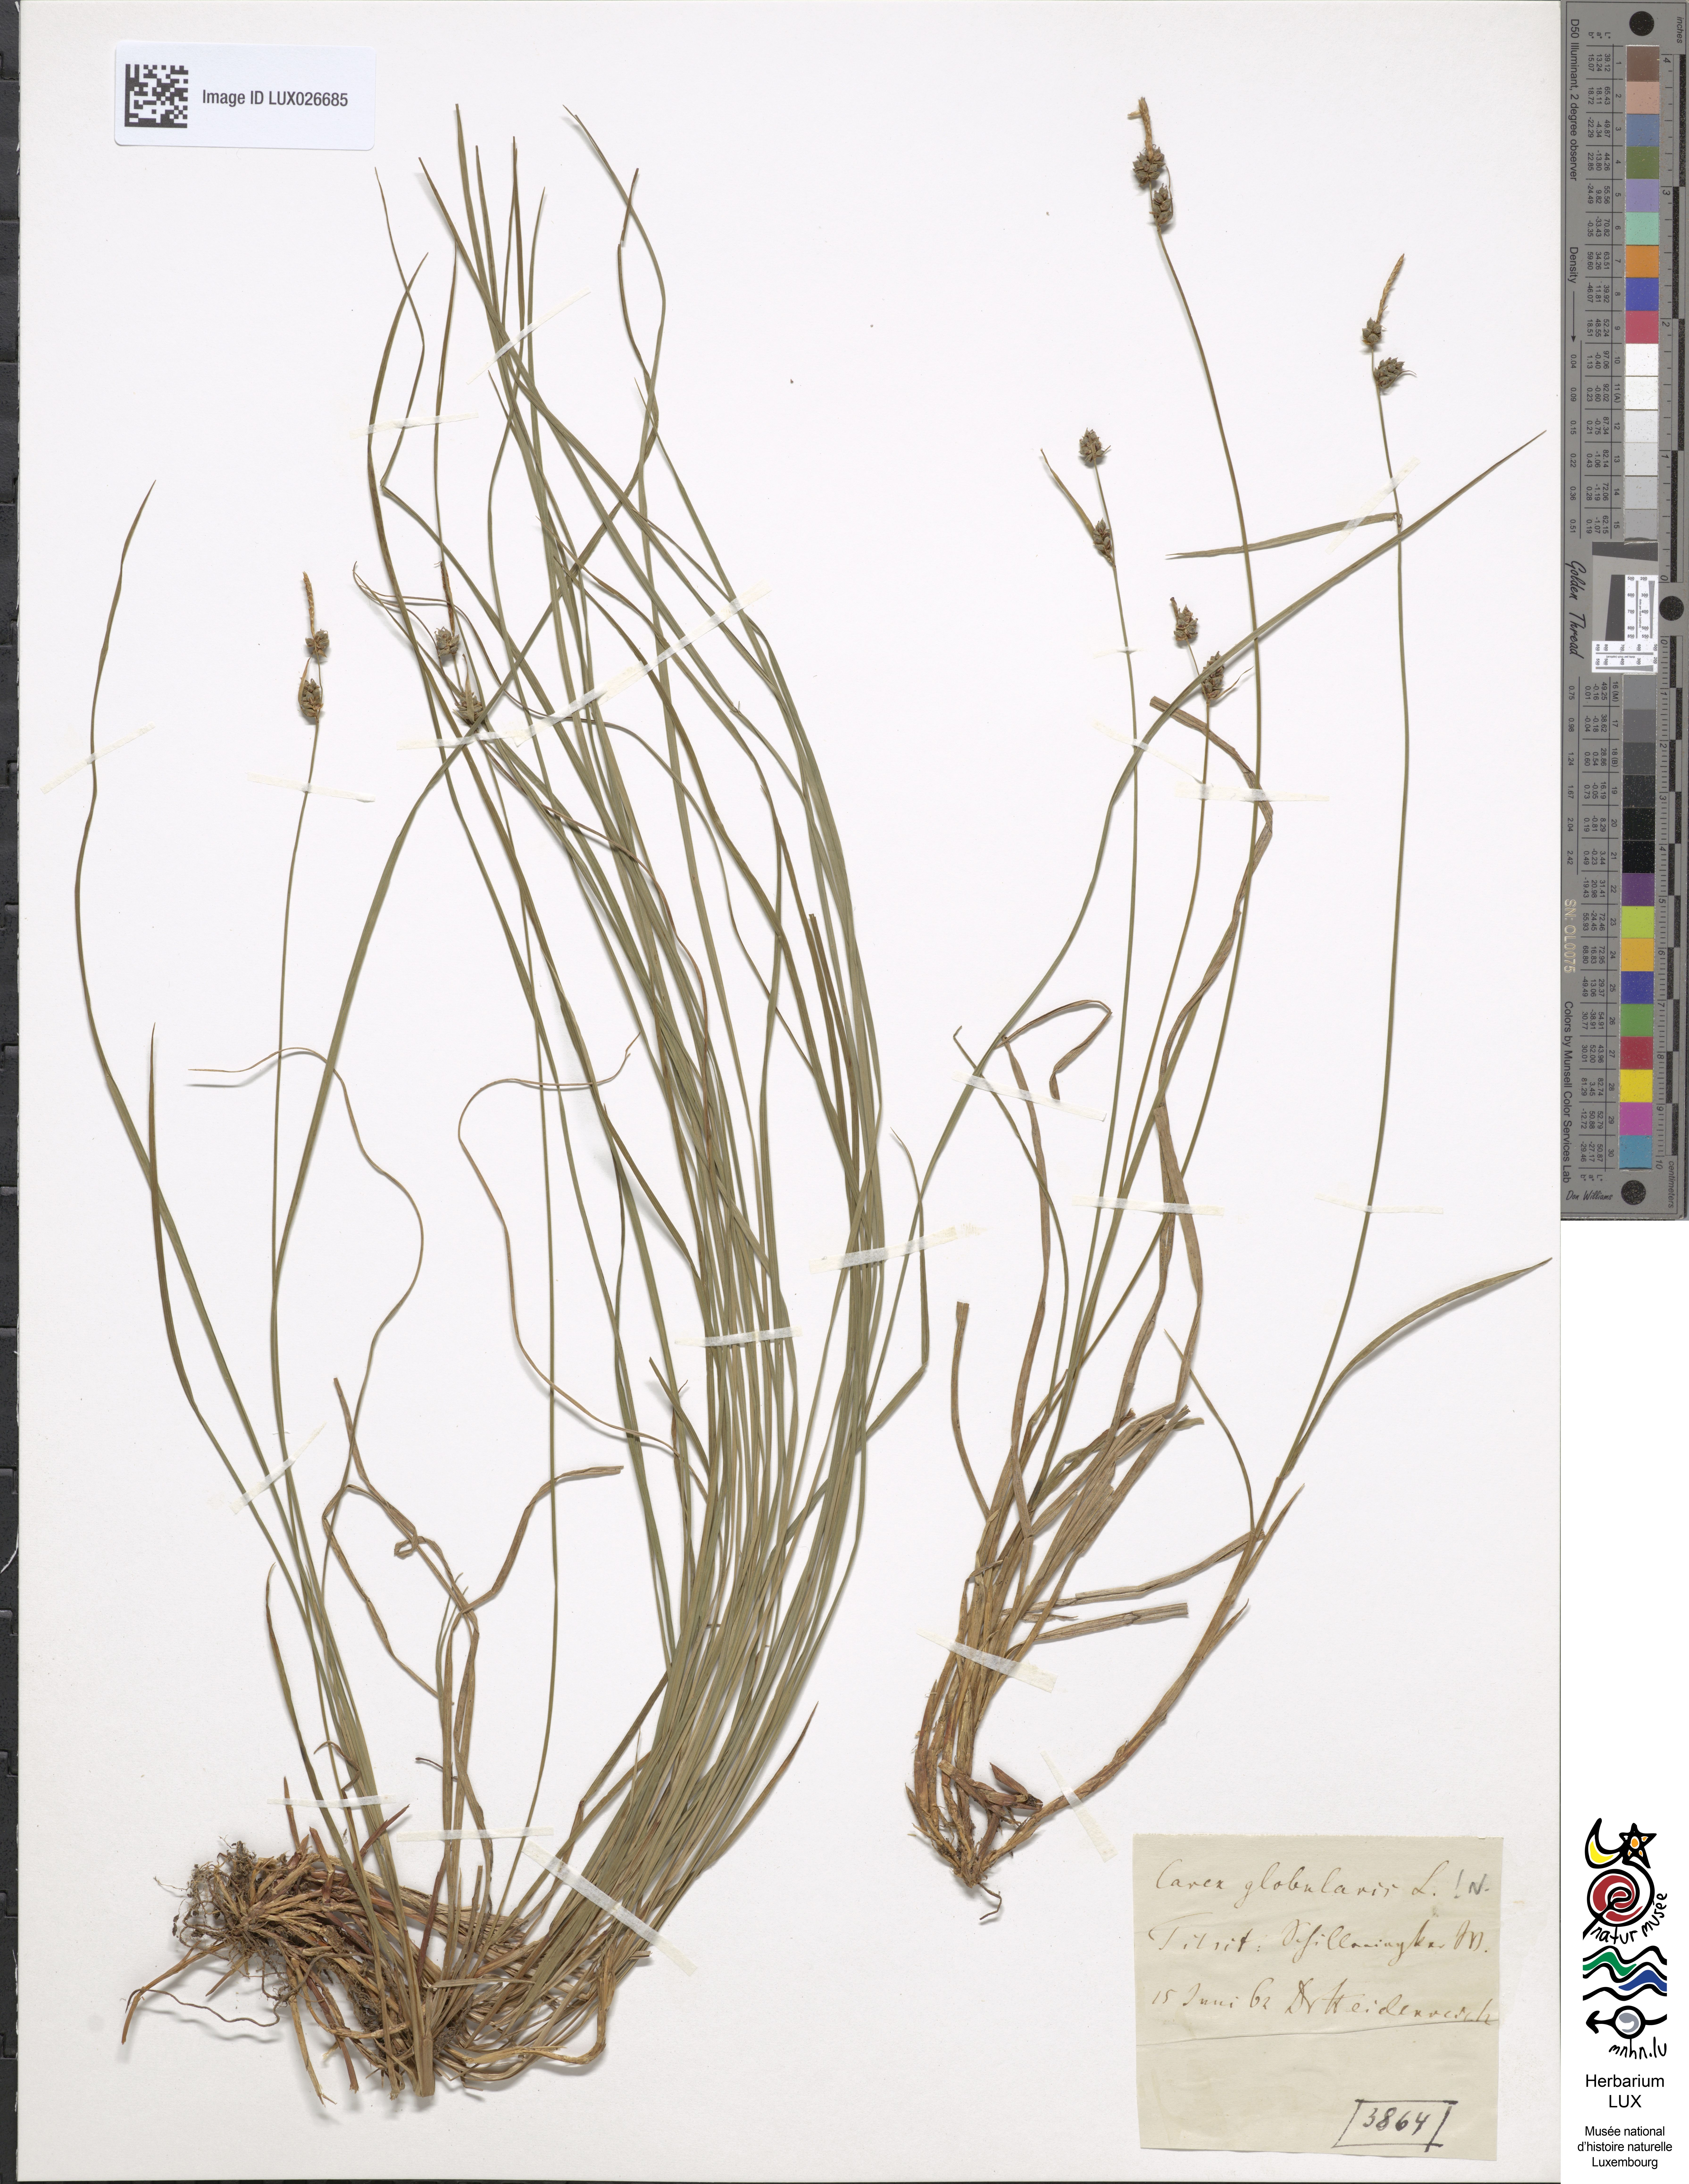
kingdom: Plantae
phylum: Tracheophyta
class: Liliopsida
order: Poales
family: Cyperaceae
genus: Carex
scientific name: Carex globularis
